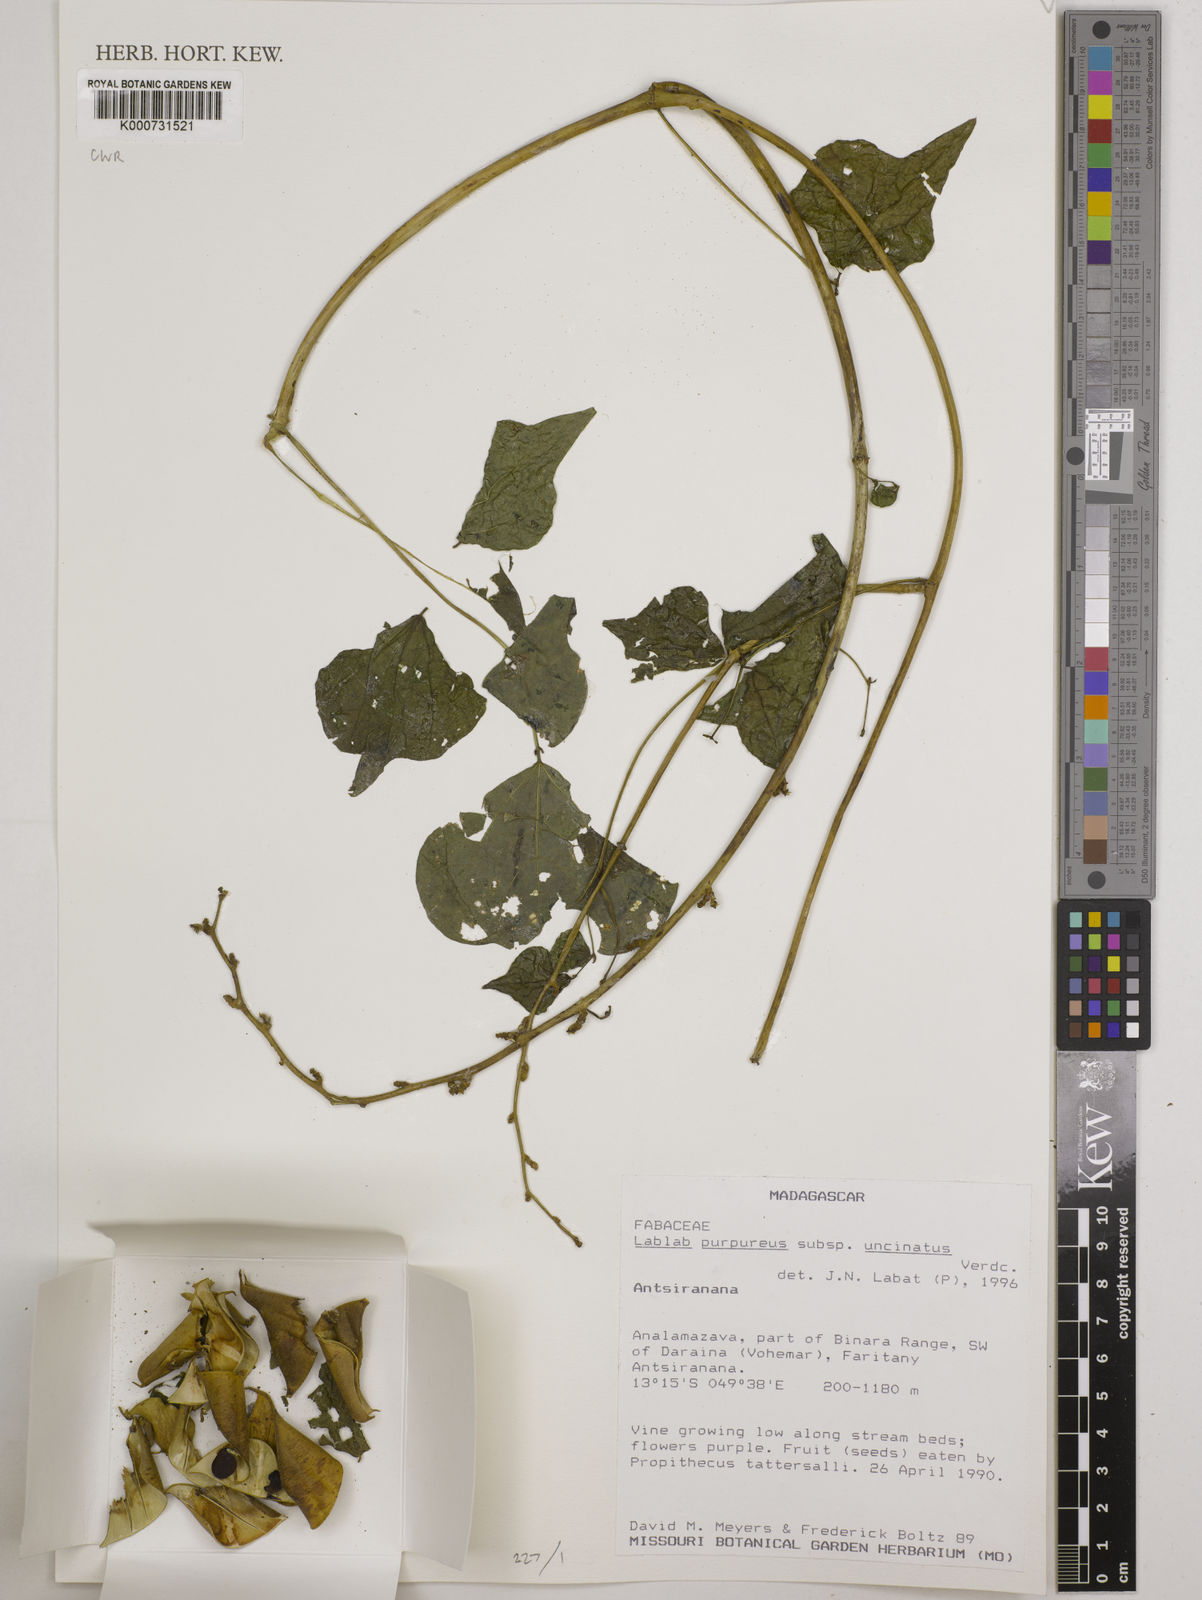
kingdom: Plantae
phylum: Tracheophyta
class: Magnoliopsida
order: Fabales
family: Fabaceae
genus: Lablab
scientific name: Lablab purpureus
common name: Lablab-bean
